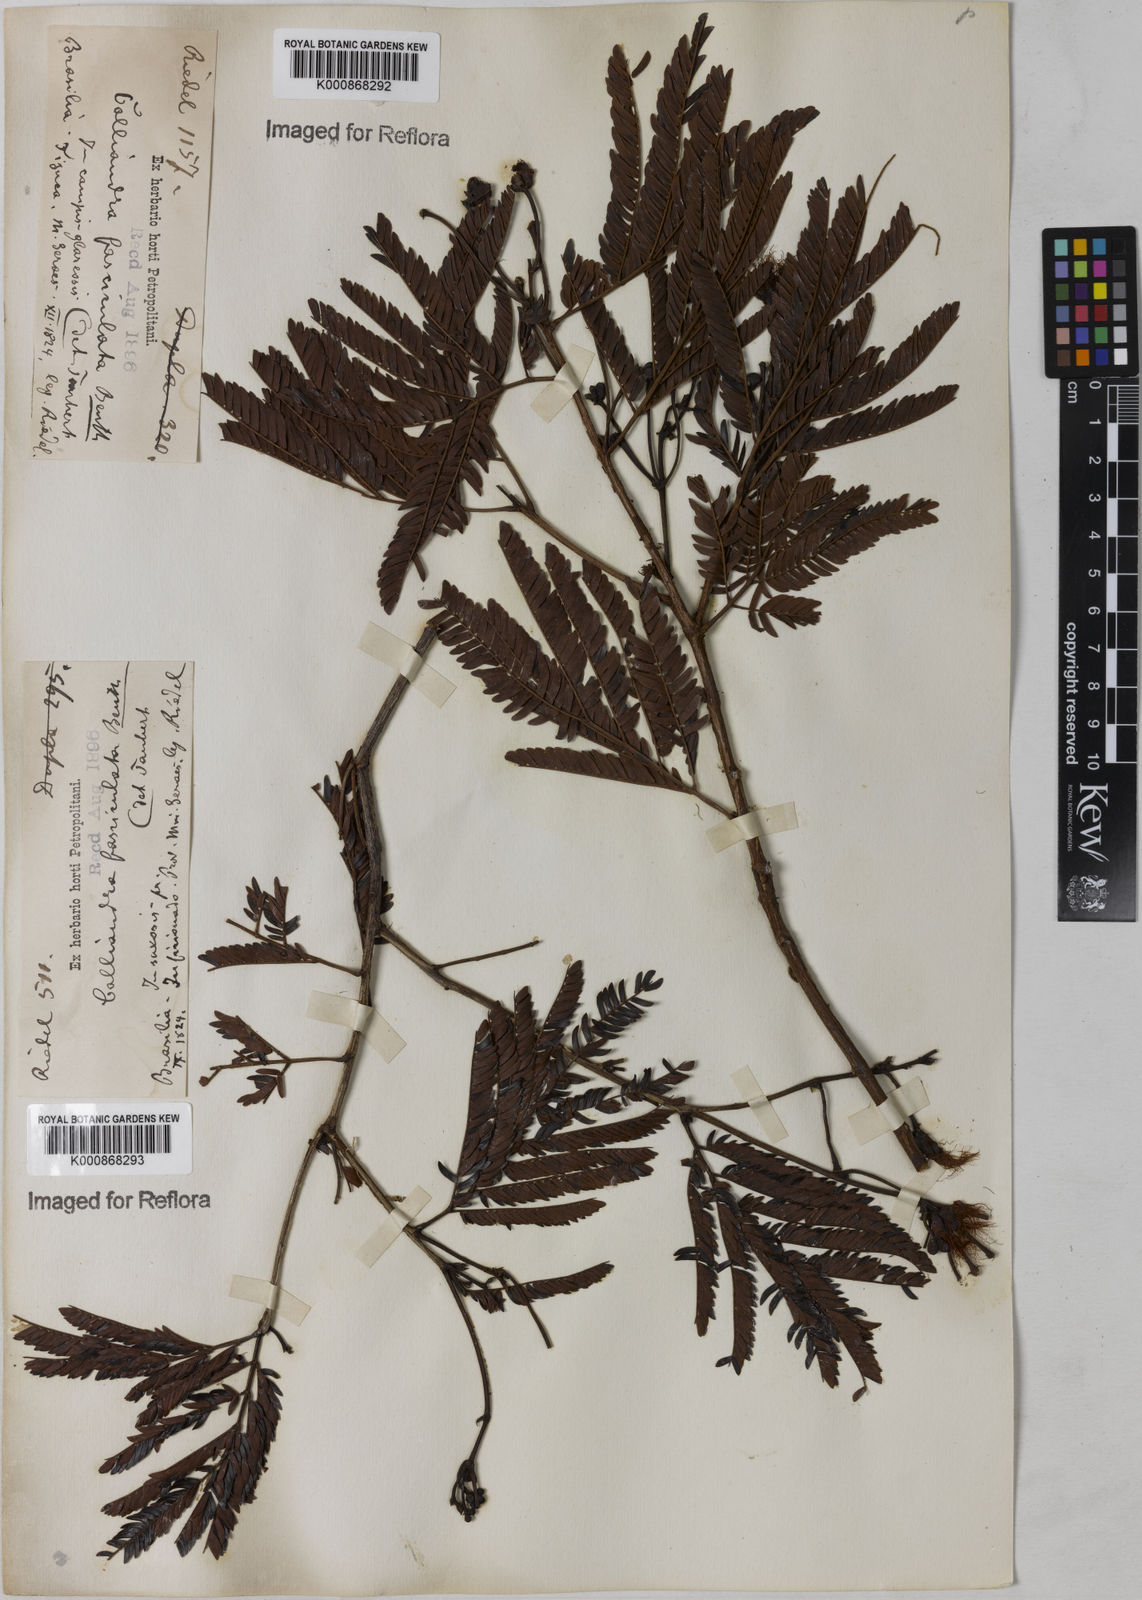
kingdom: Plantae
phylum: Tracheophyta
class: Magnoliopsida
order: Fabales
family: Fabaceae
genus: Calliandra
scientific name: Calliandra fasciculata
